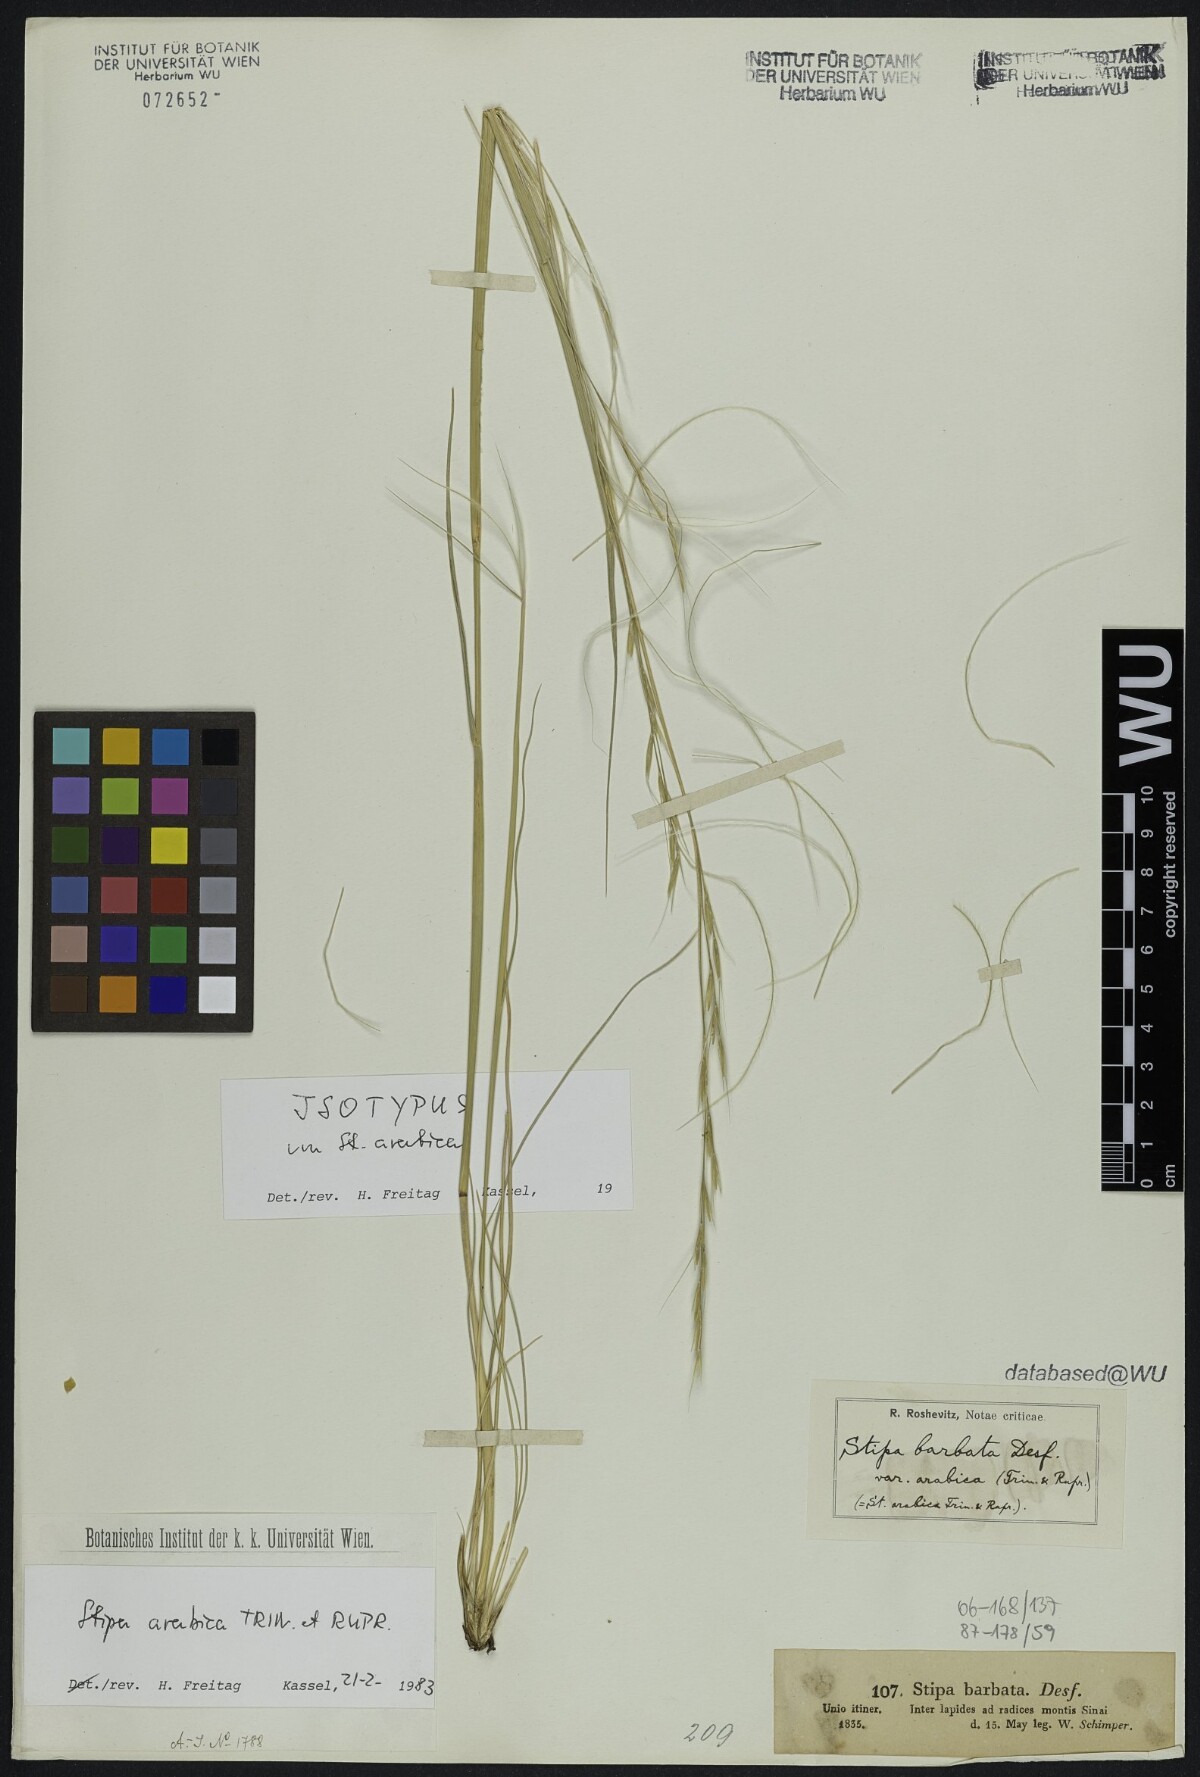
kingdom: Plantae
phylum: Tracheophyta
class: Liliopsida
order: Poales
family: Poaceae
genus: Stipa
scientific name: Stipa arabica
